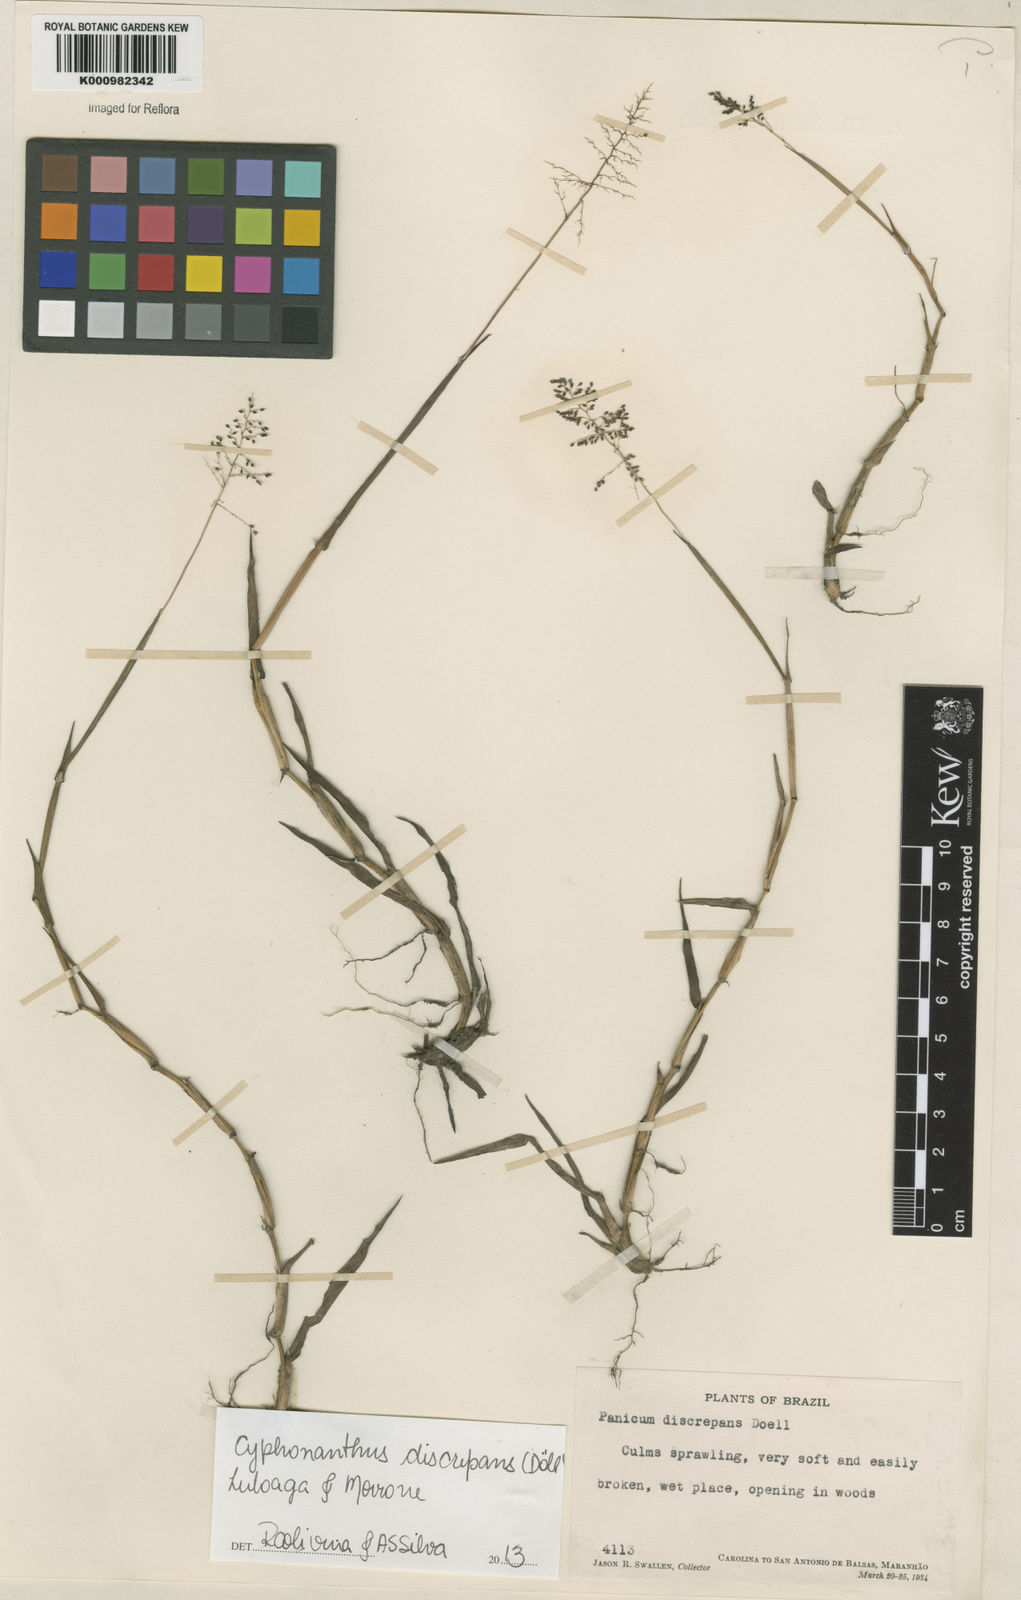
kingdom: Plantae
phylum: Tracheophyta
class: Liliopsida
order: Poales
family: Poaceae
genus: Panicum
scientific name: Panicum
